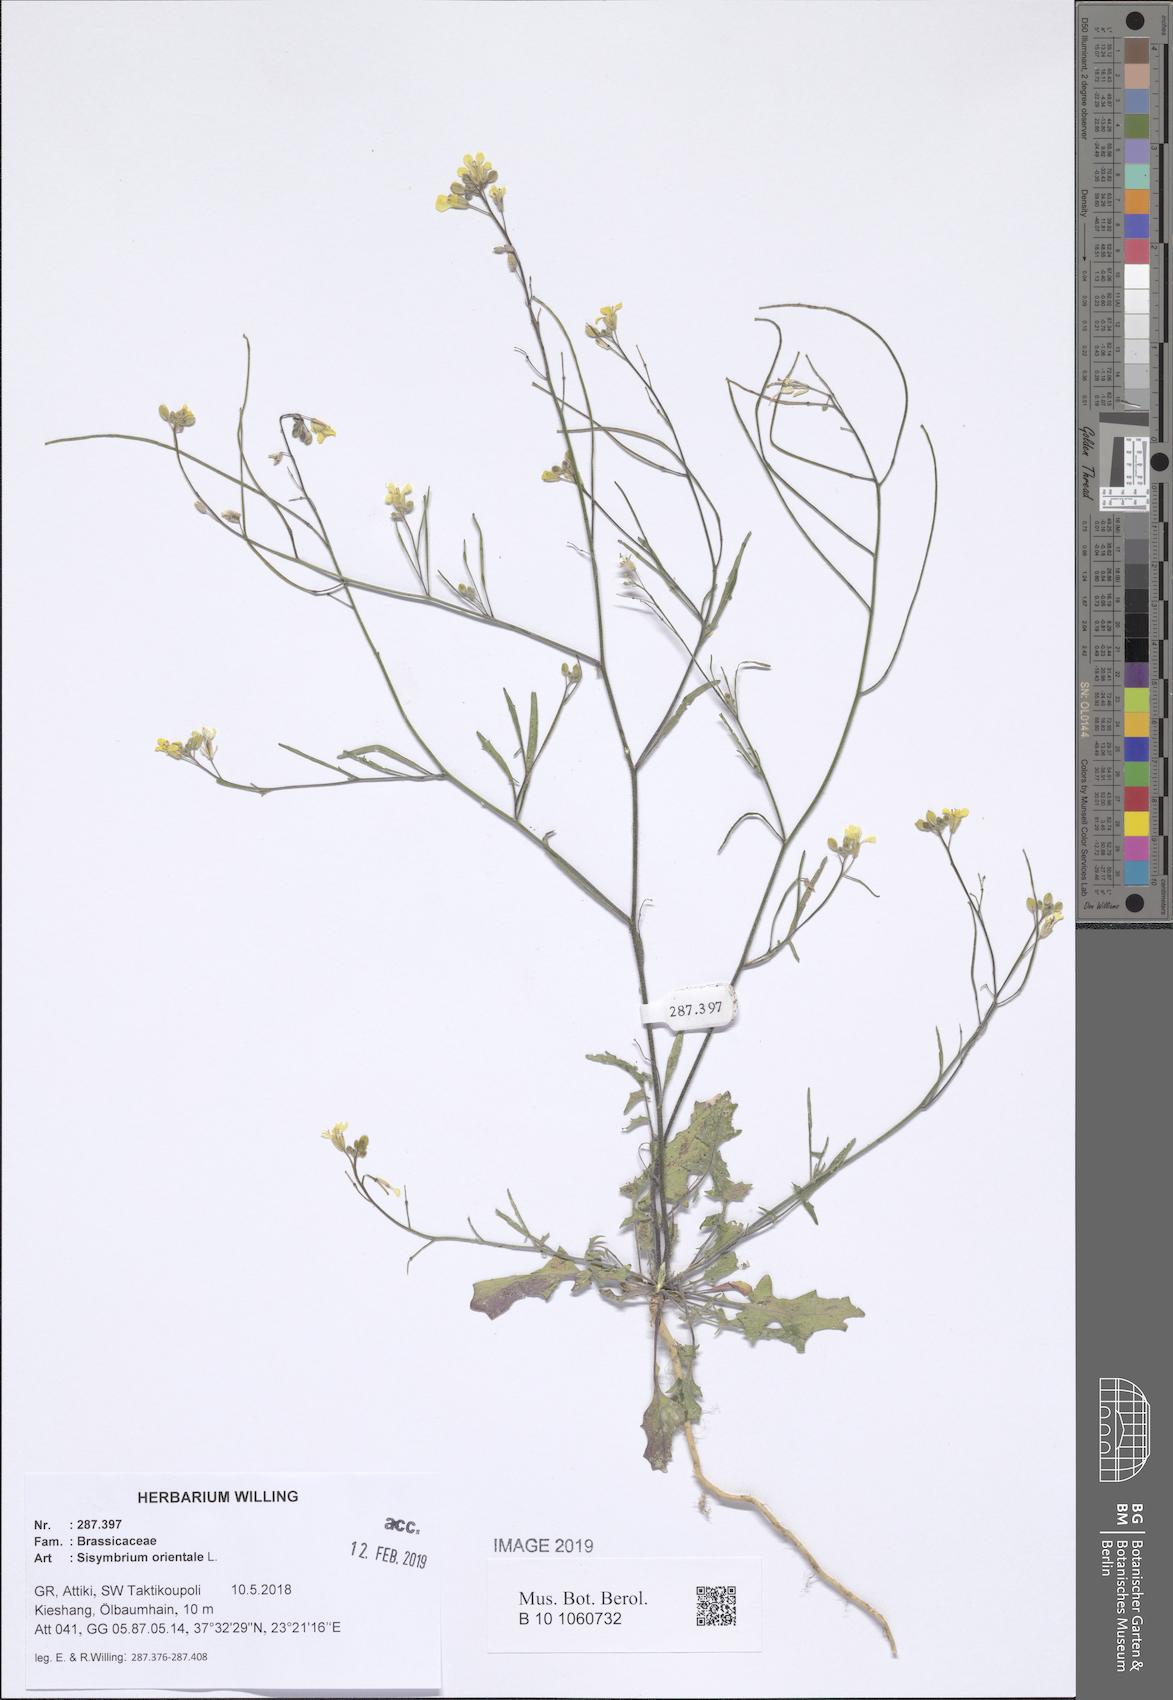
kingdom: Plantae
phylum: Tracheophyta
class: Magnoliopsida
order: Brassicales
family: Brassicaceae
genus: Sisymbrium
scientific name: Sisymbrium orientale
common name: Eastern rocket
